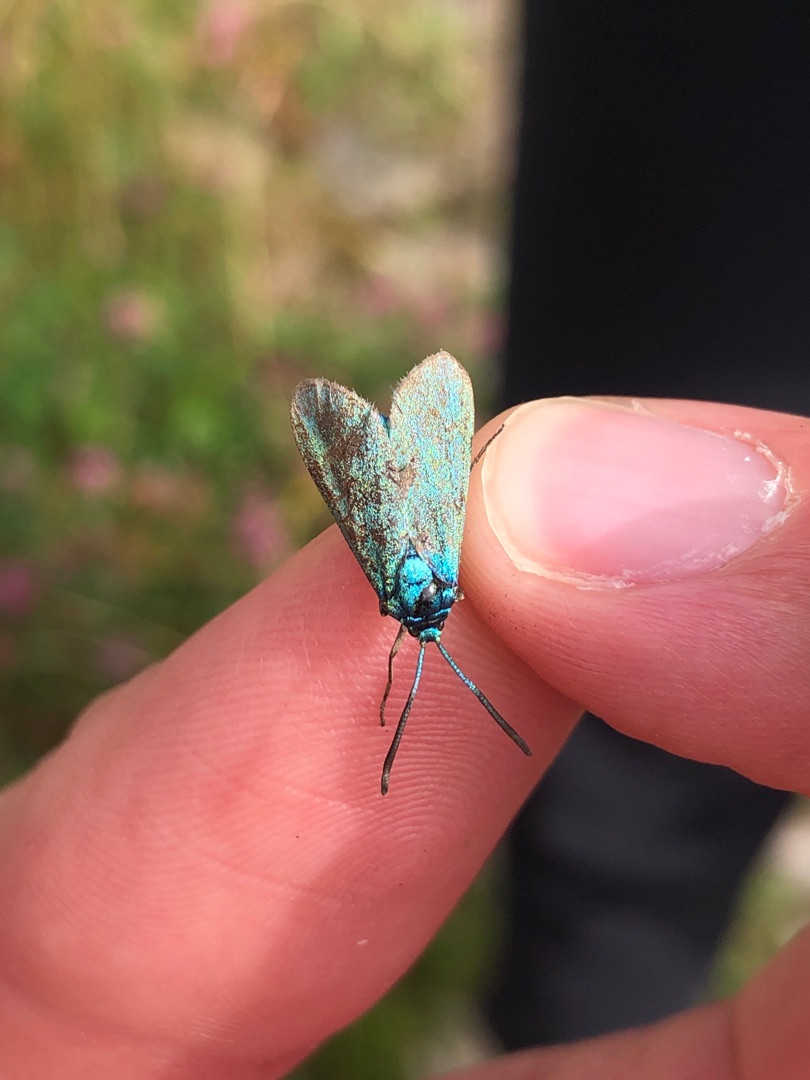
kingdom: Animalia
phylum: Arthropoda
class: Insecta
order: Lepidoptera
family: Zygaenidae
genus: Adscita
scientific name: Adscita statices
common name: Metalvinge
